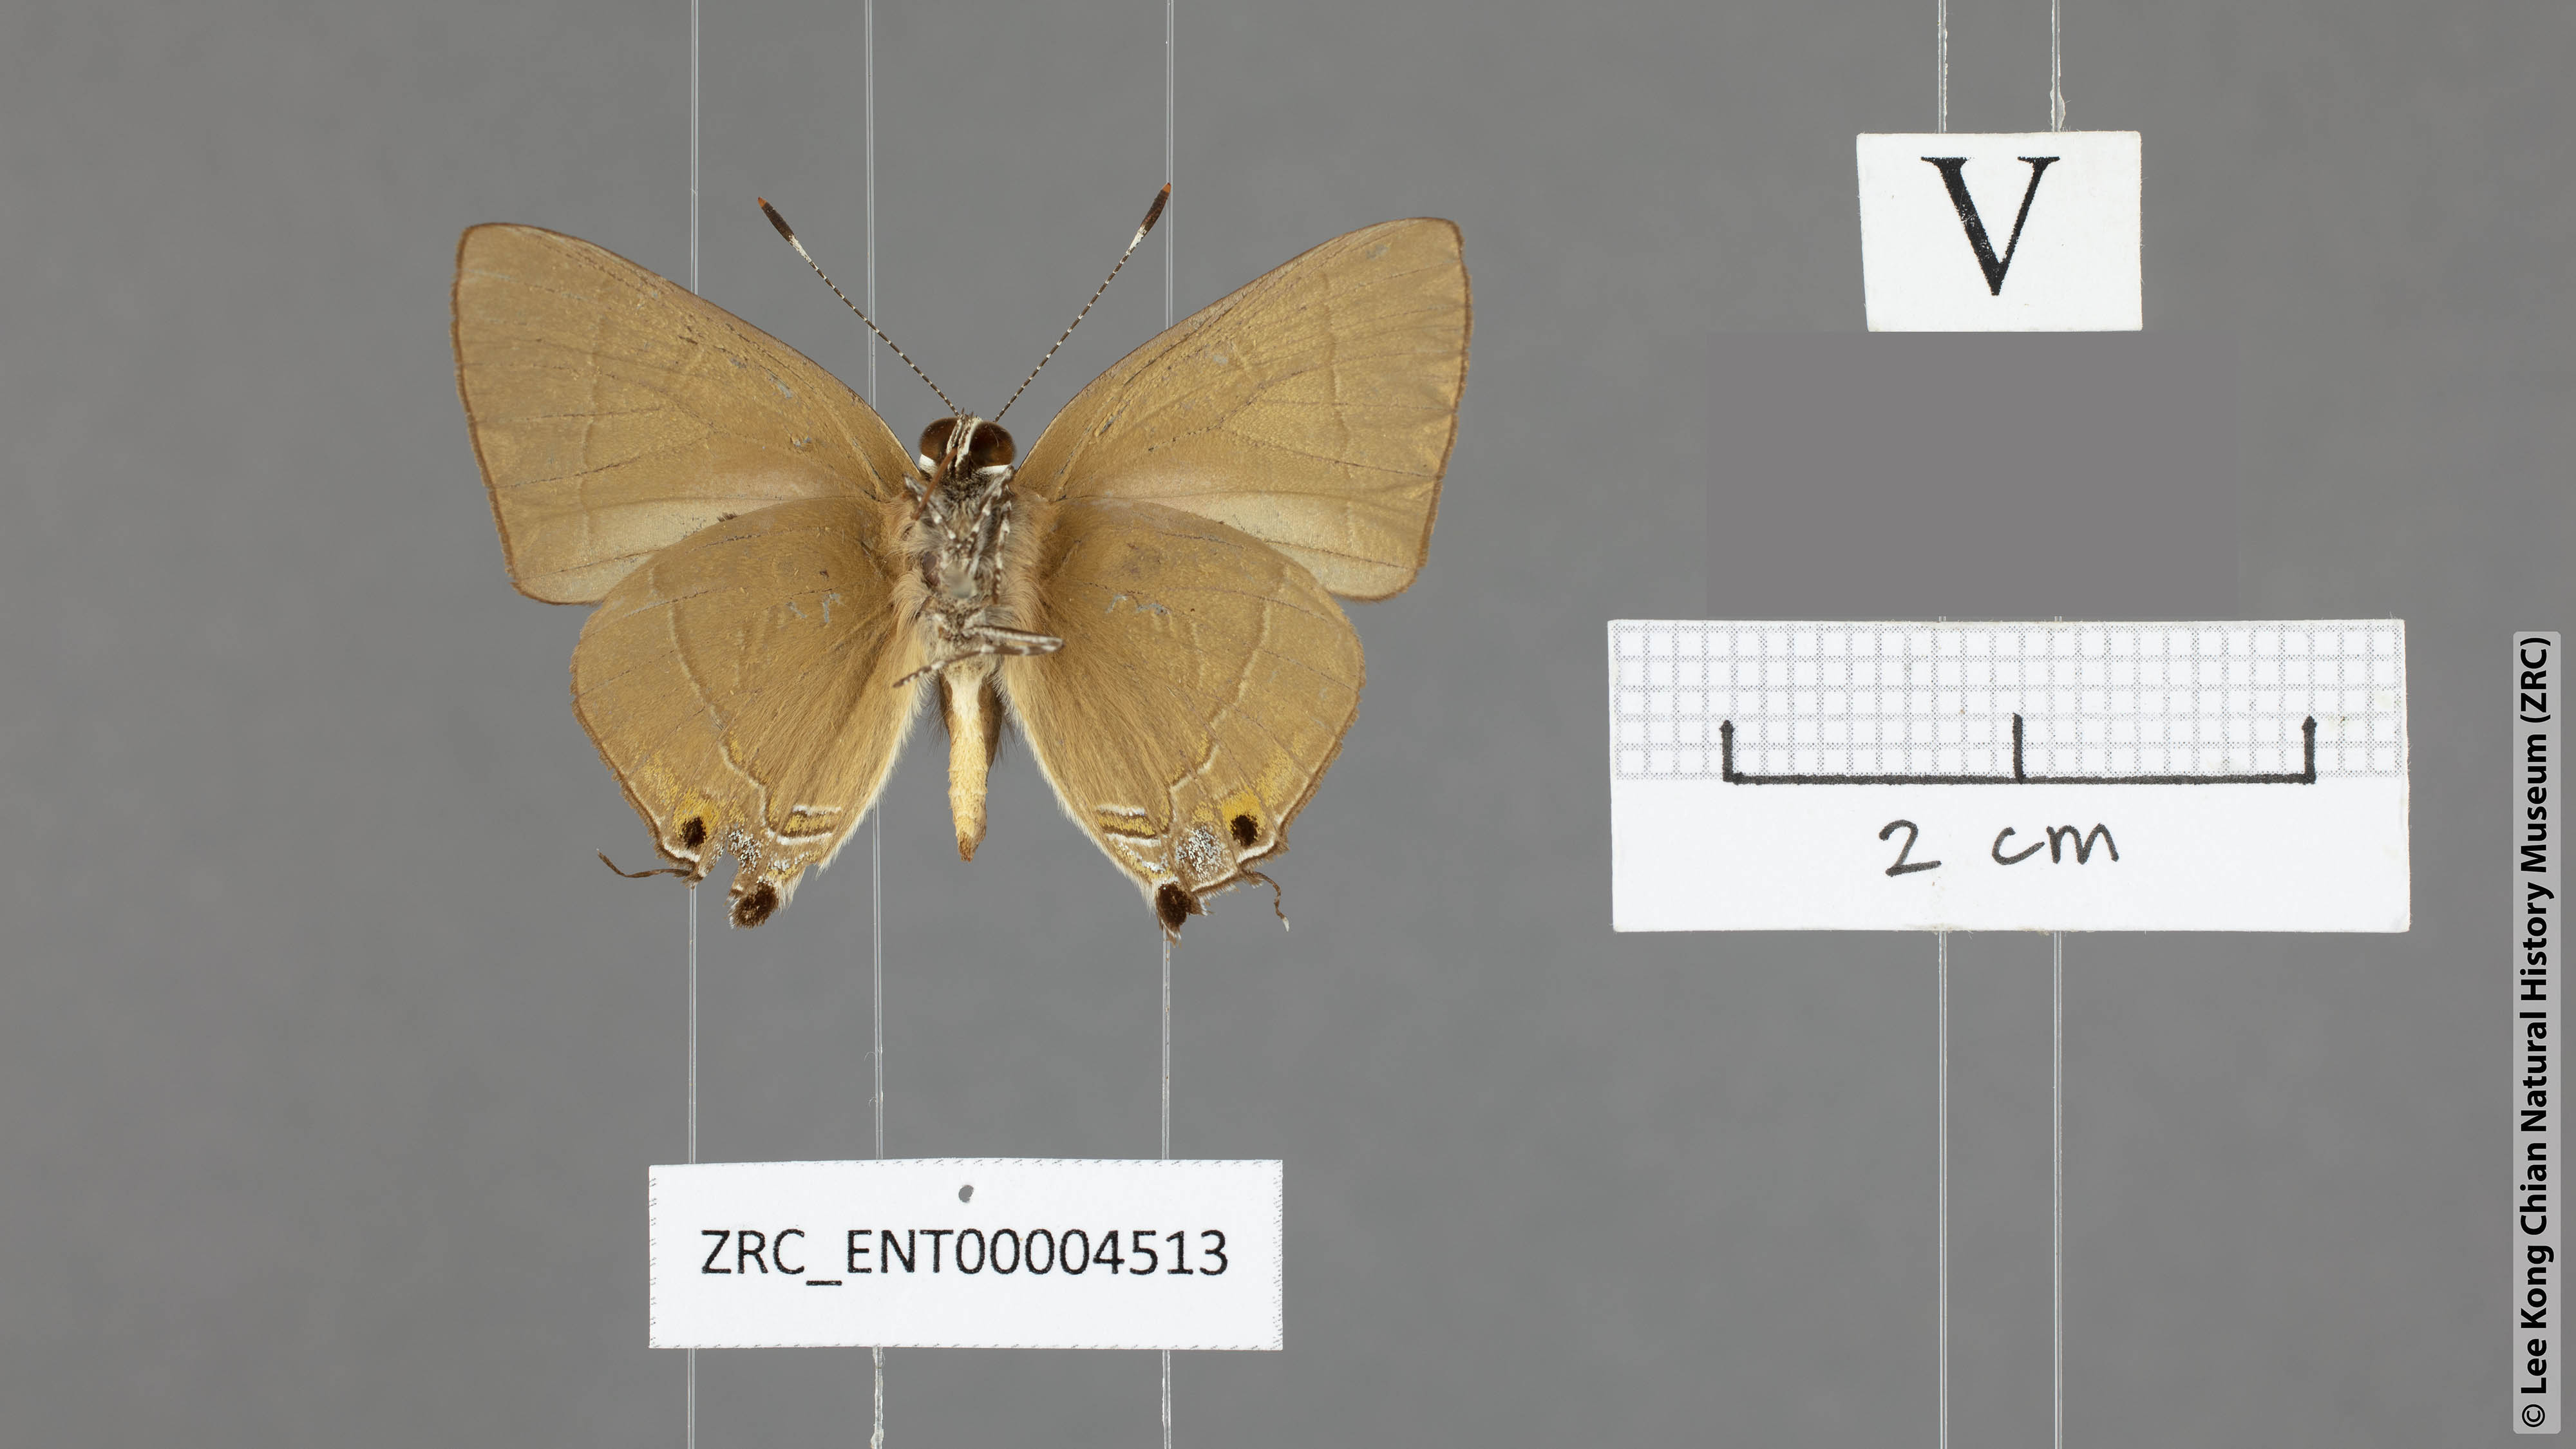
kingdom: Animalia
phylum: Arthropoda
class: Insecta
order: Lepidoptera
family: Lycaenidae
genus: Rapala
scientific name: Rapala rhodopis
